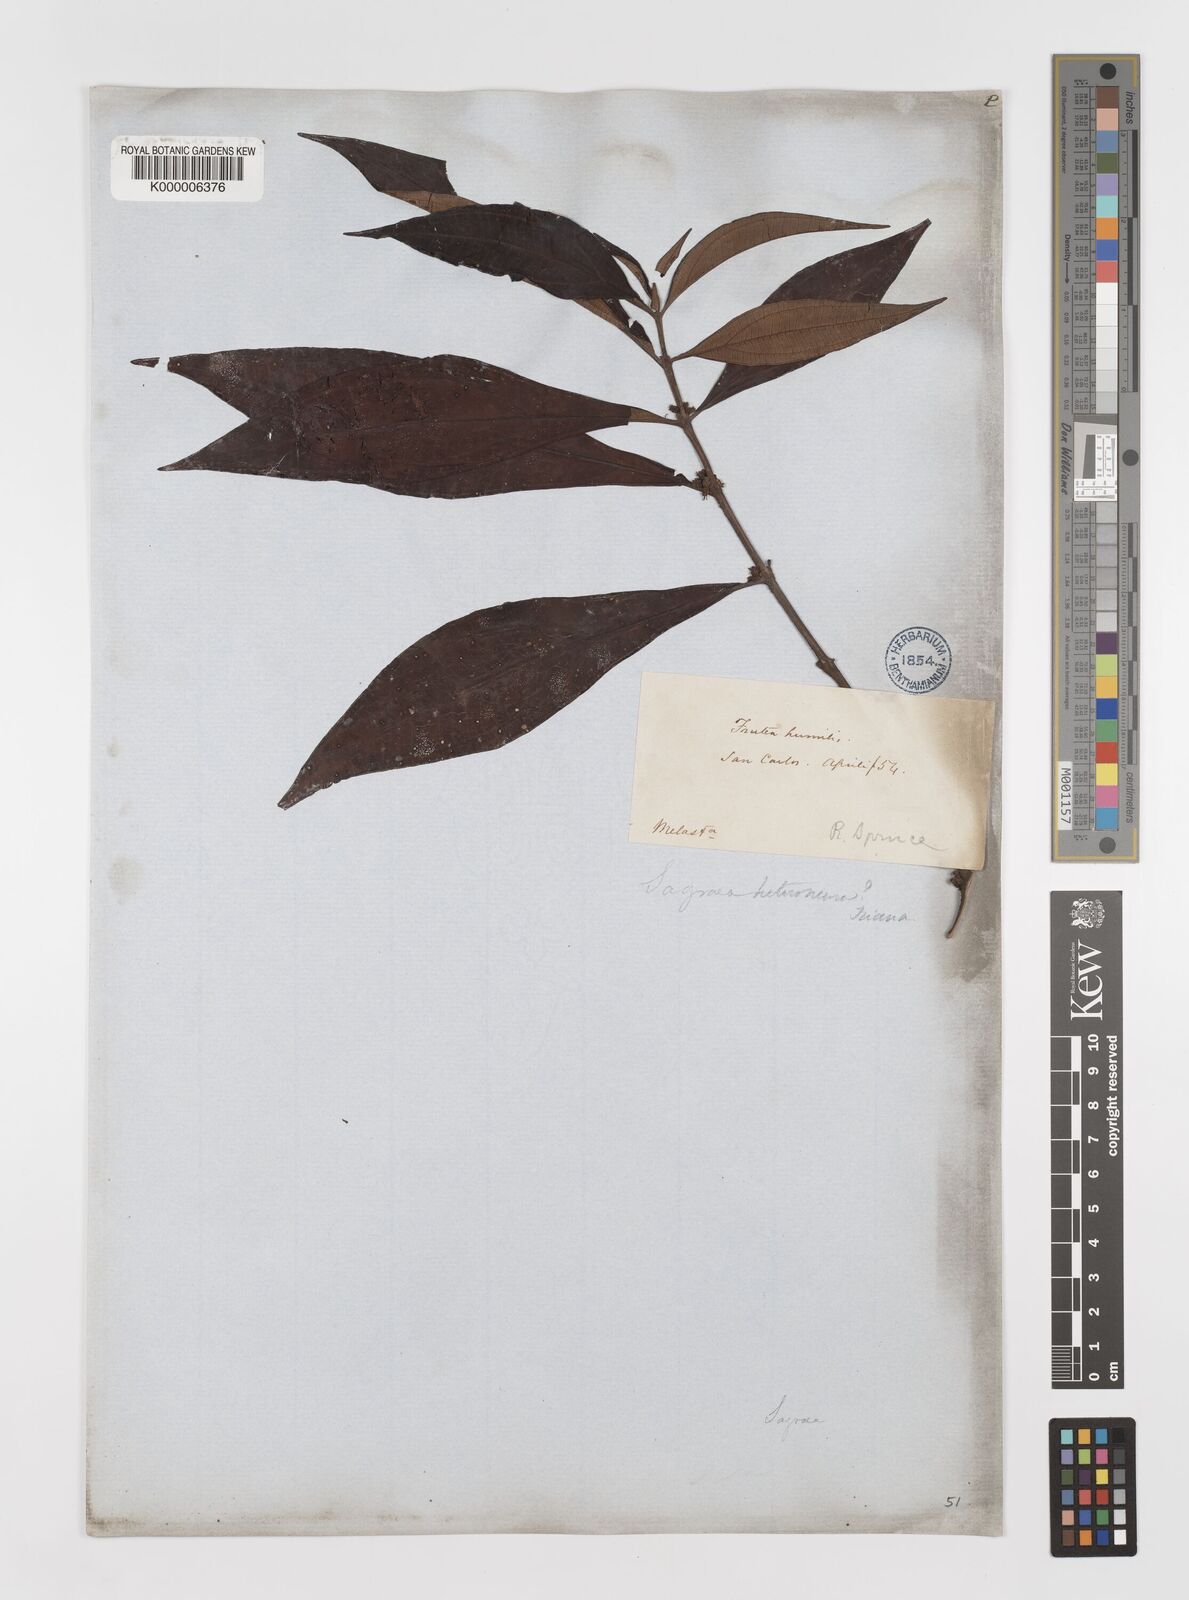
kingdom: Plantae
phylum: Tracheophyta
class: Magnoliopsida
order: Myrtales
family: Melastomataceae
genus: Miconia
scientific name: Miconia heteroneura
